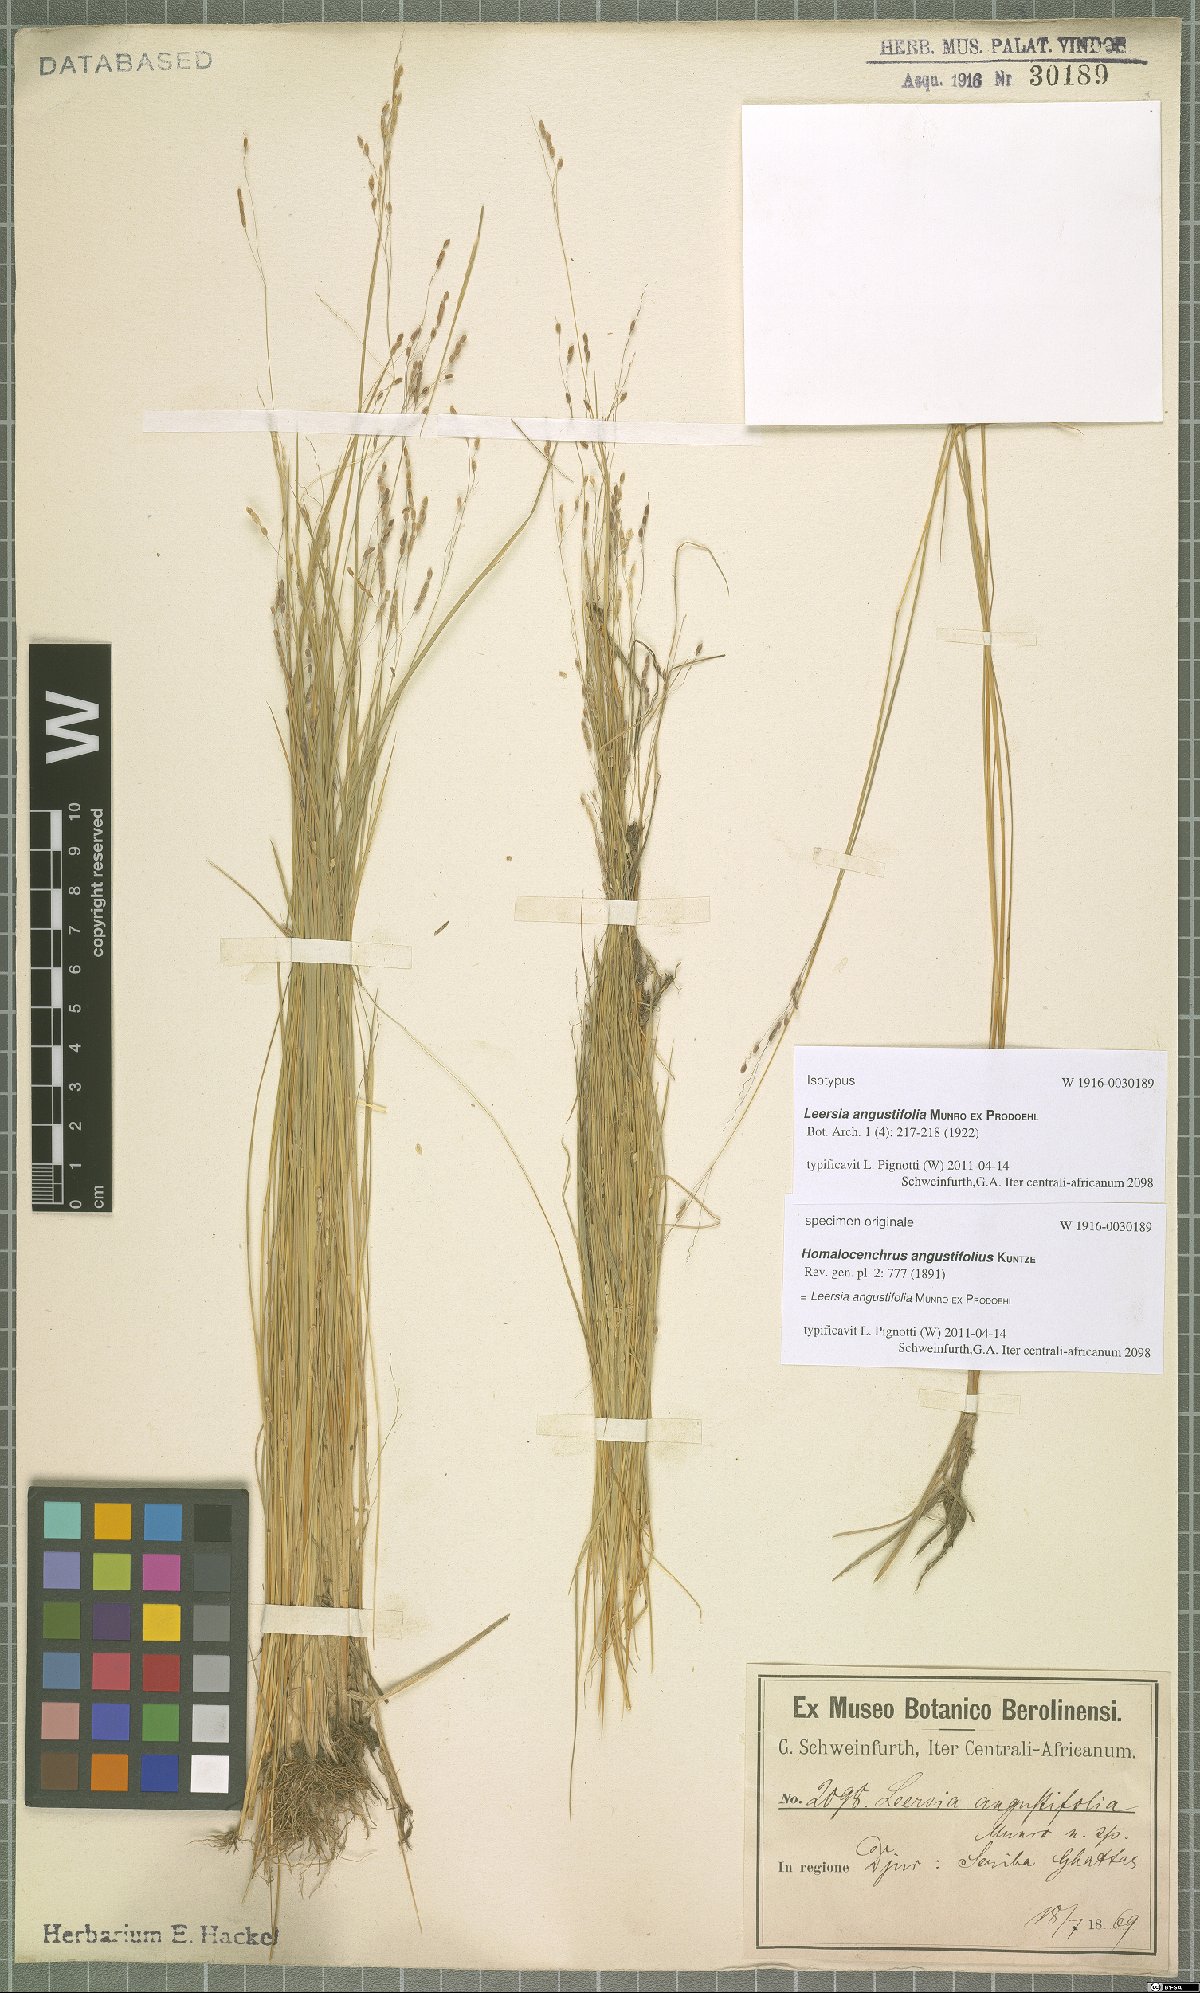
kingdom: Plantae
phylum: Tracheophyta
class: Liliopsida
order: Poales
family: Poaceae
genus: Leersia
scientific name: Leersia angustifolia
